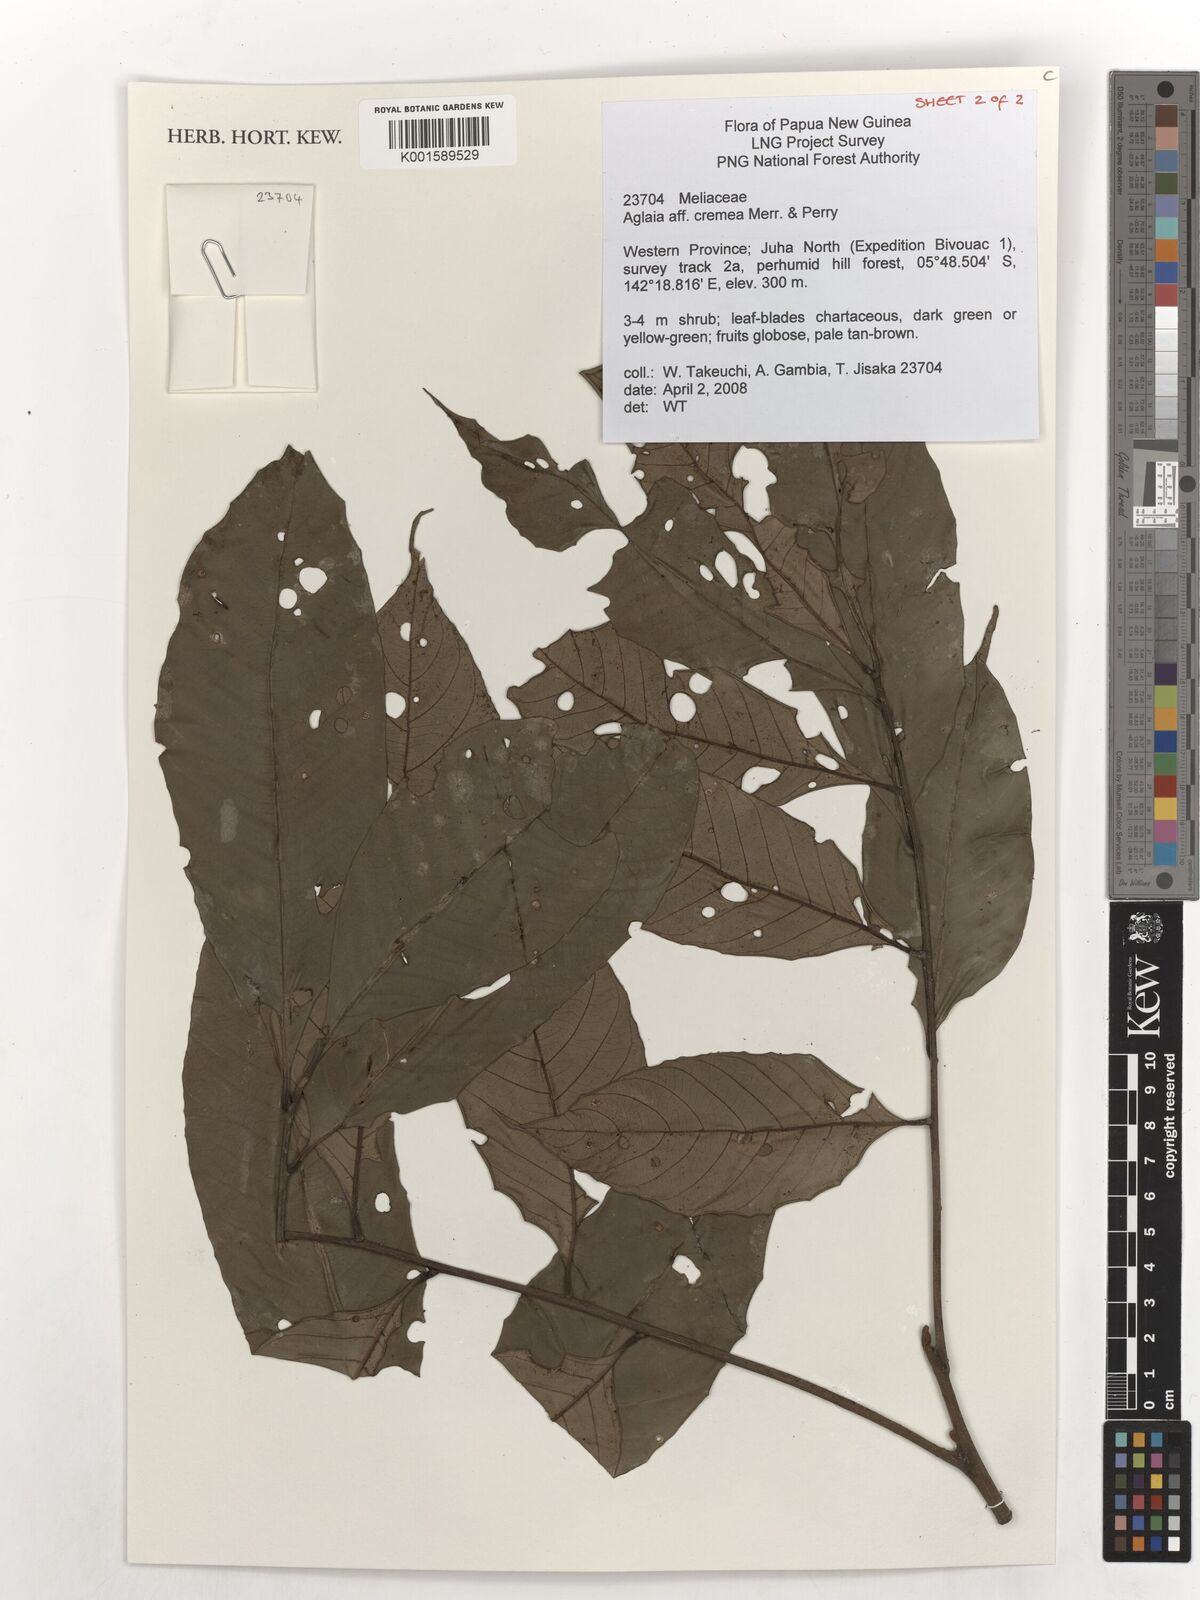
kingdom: Plantae
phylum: Tracheophyta
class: Magnoliopsida
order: Sapindales
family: Meliaceae
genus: Aglaia
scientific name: Aglaia cremea
